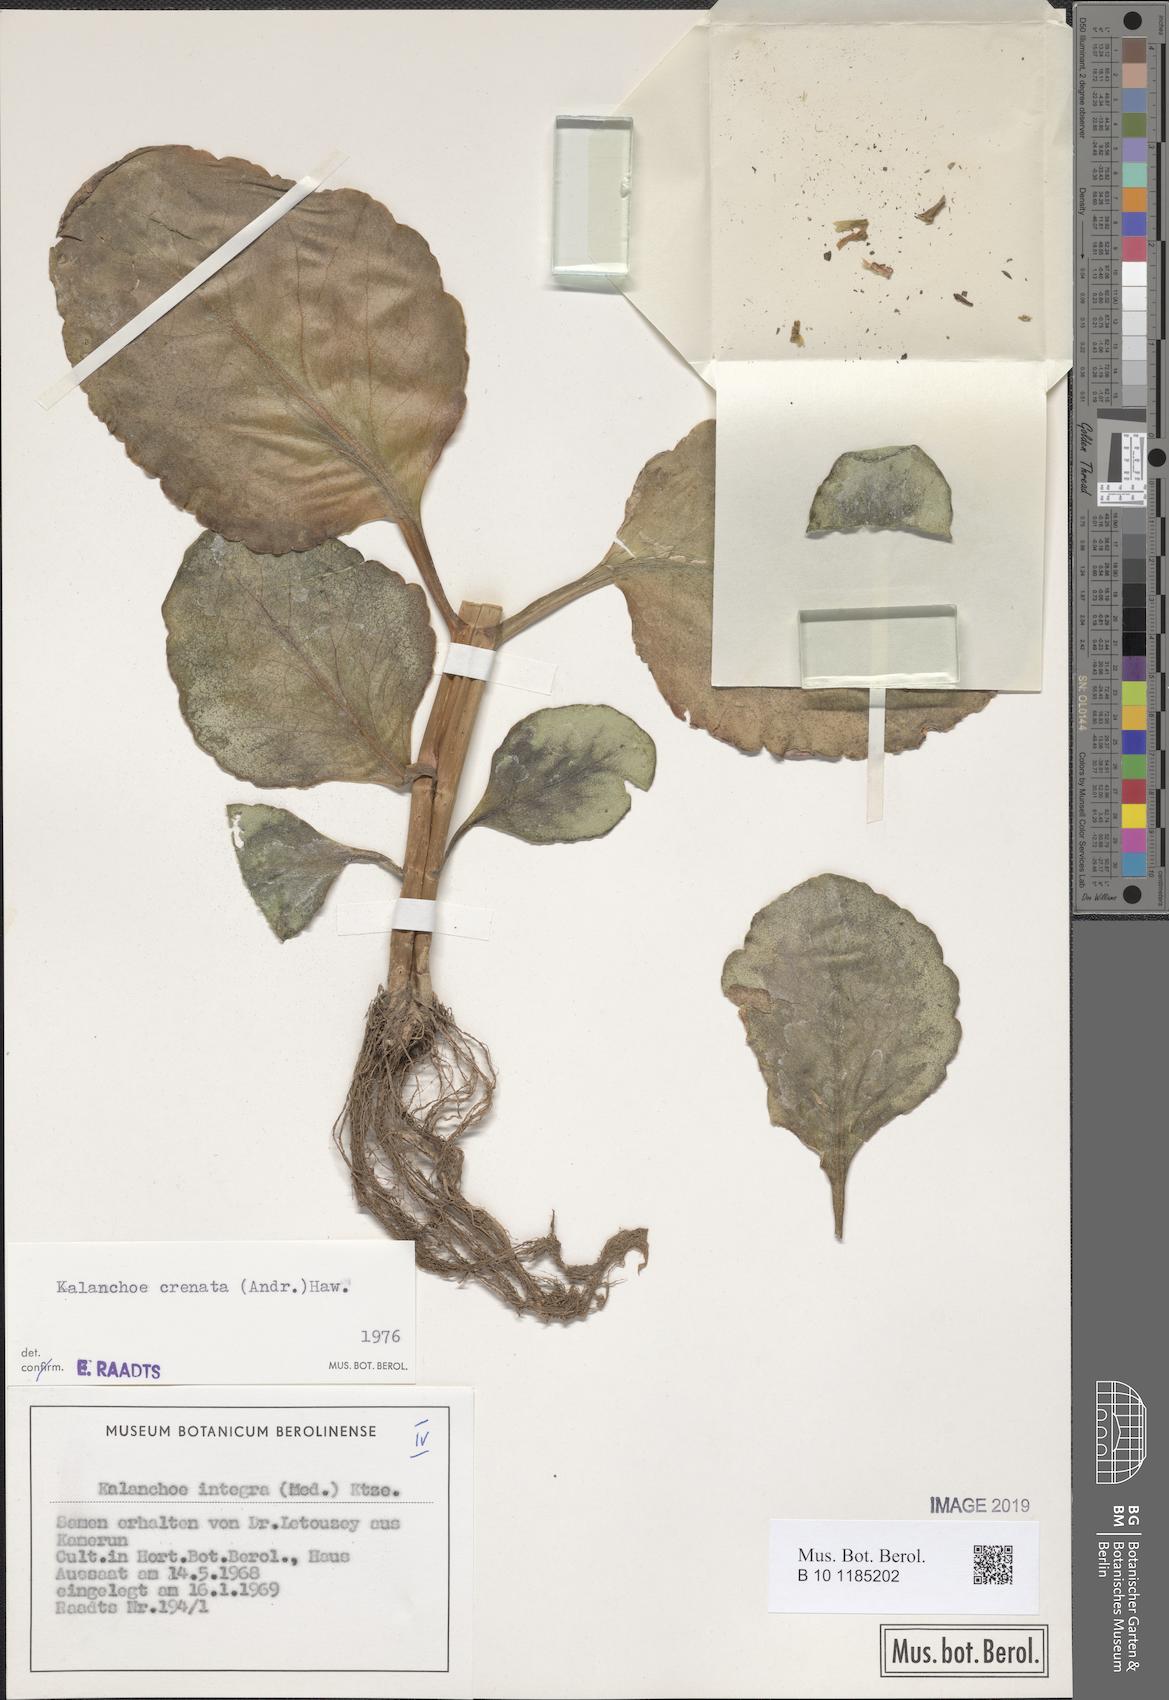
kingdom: Plantae
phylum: Tracheophyta
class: Magnoliopsida
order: Saxifragales
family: Crassulaceae
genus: Kalanchoe
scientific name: Kalanchoe crenata
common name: Neverdie
